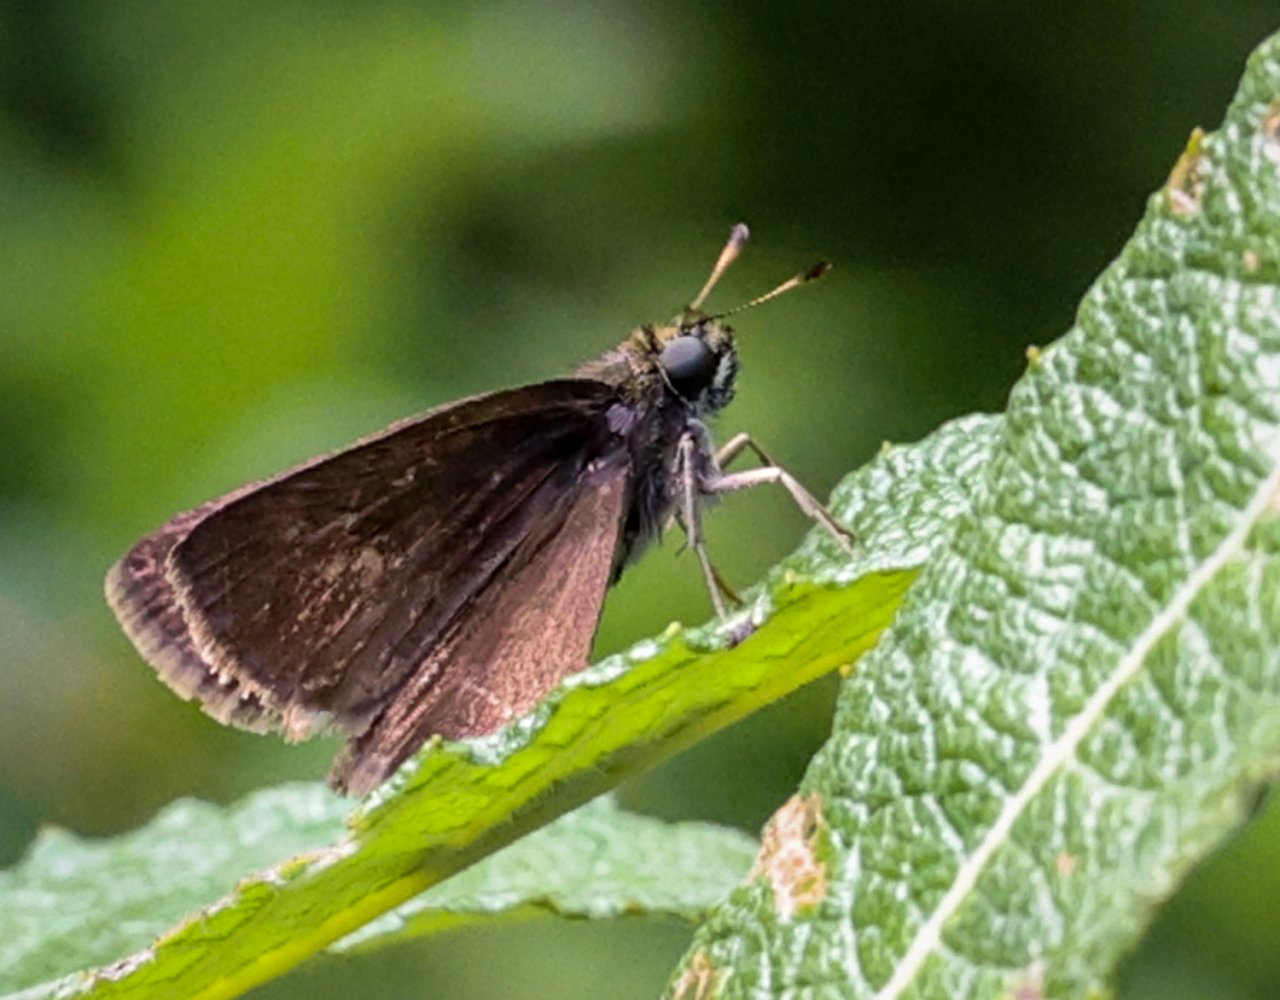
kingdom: Animalia
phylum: Arthropoda
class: Insecta
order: Lepidoptera
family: Hesperiidae
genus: Vernia
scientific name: Vernia verna
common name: Little Glassywing
